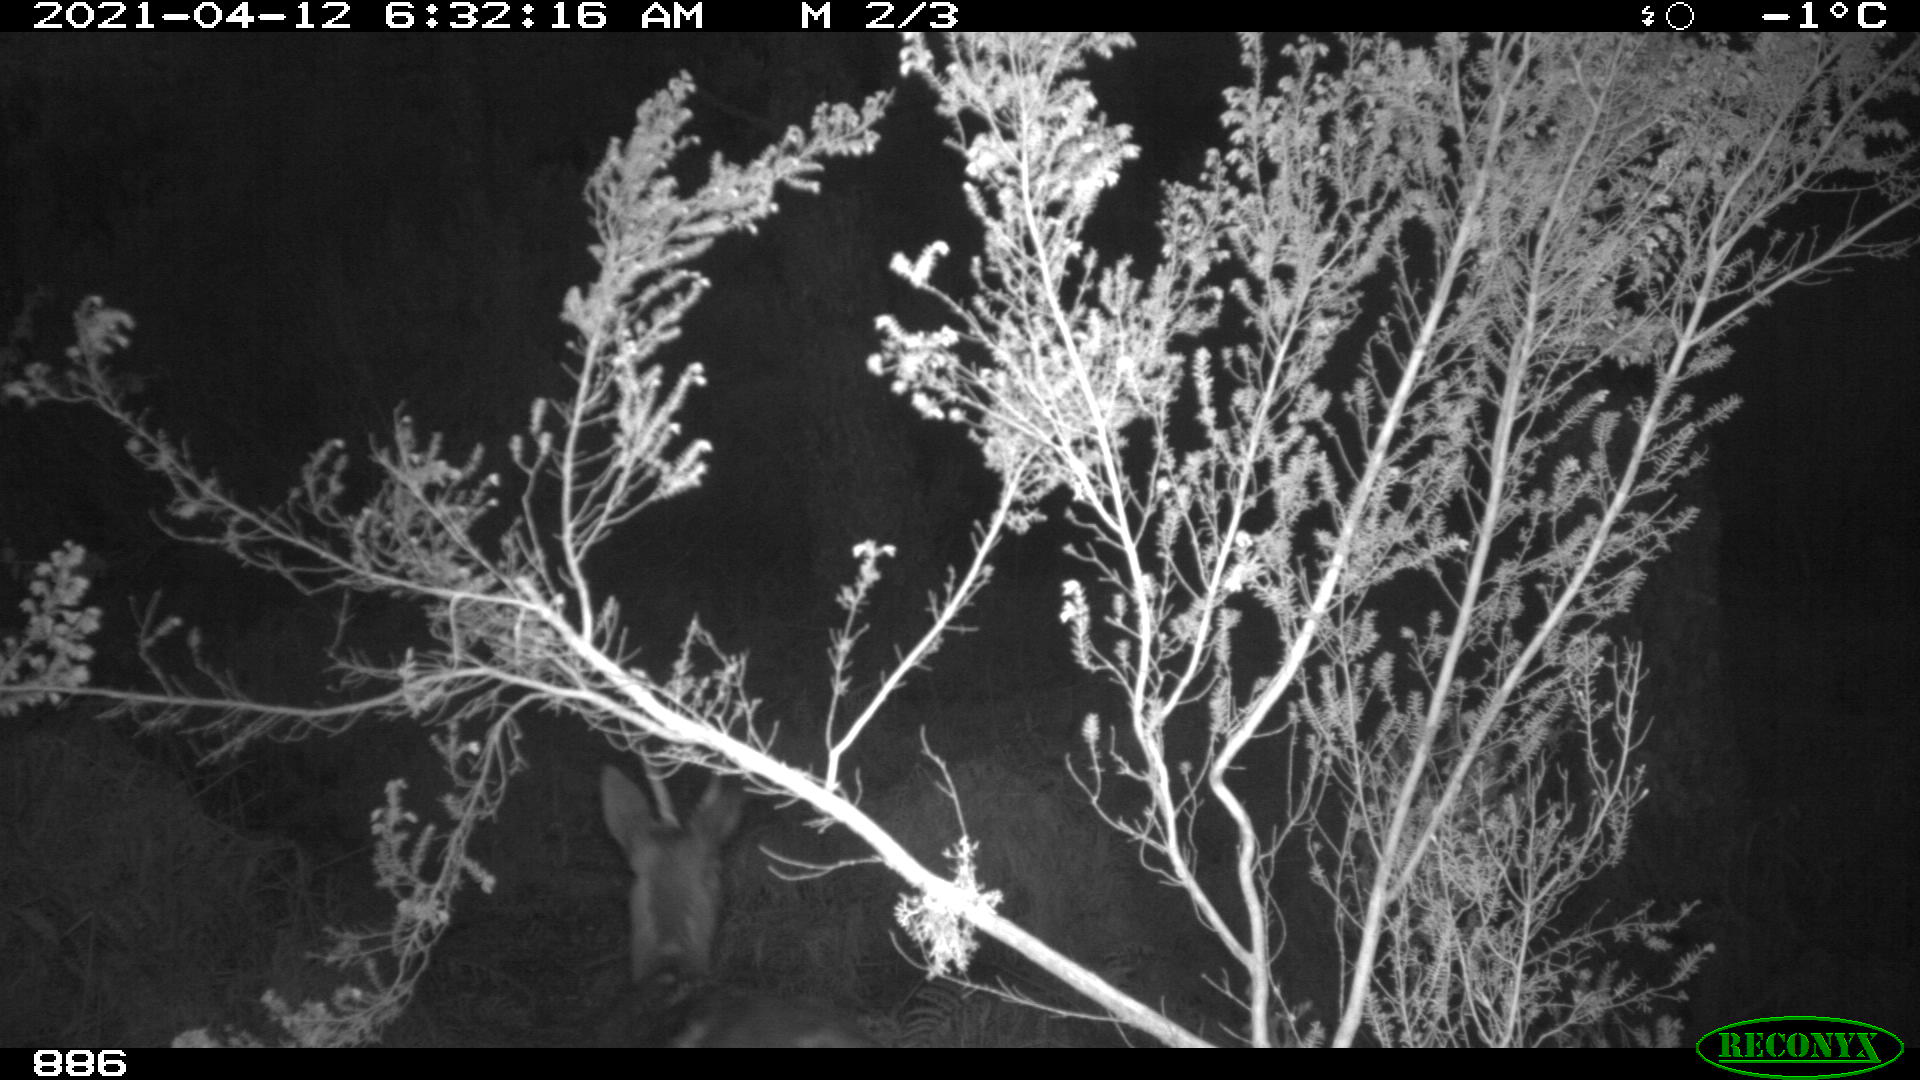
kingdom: Animalia
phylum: Chordata
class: Mammalia
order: Artiodactyla
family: Cervidae
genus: Capreolus
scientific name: Capreolus capreolus
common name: Western roe deer
